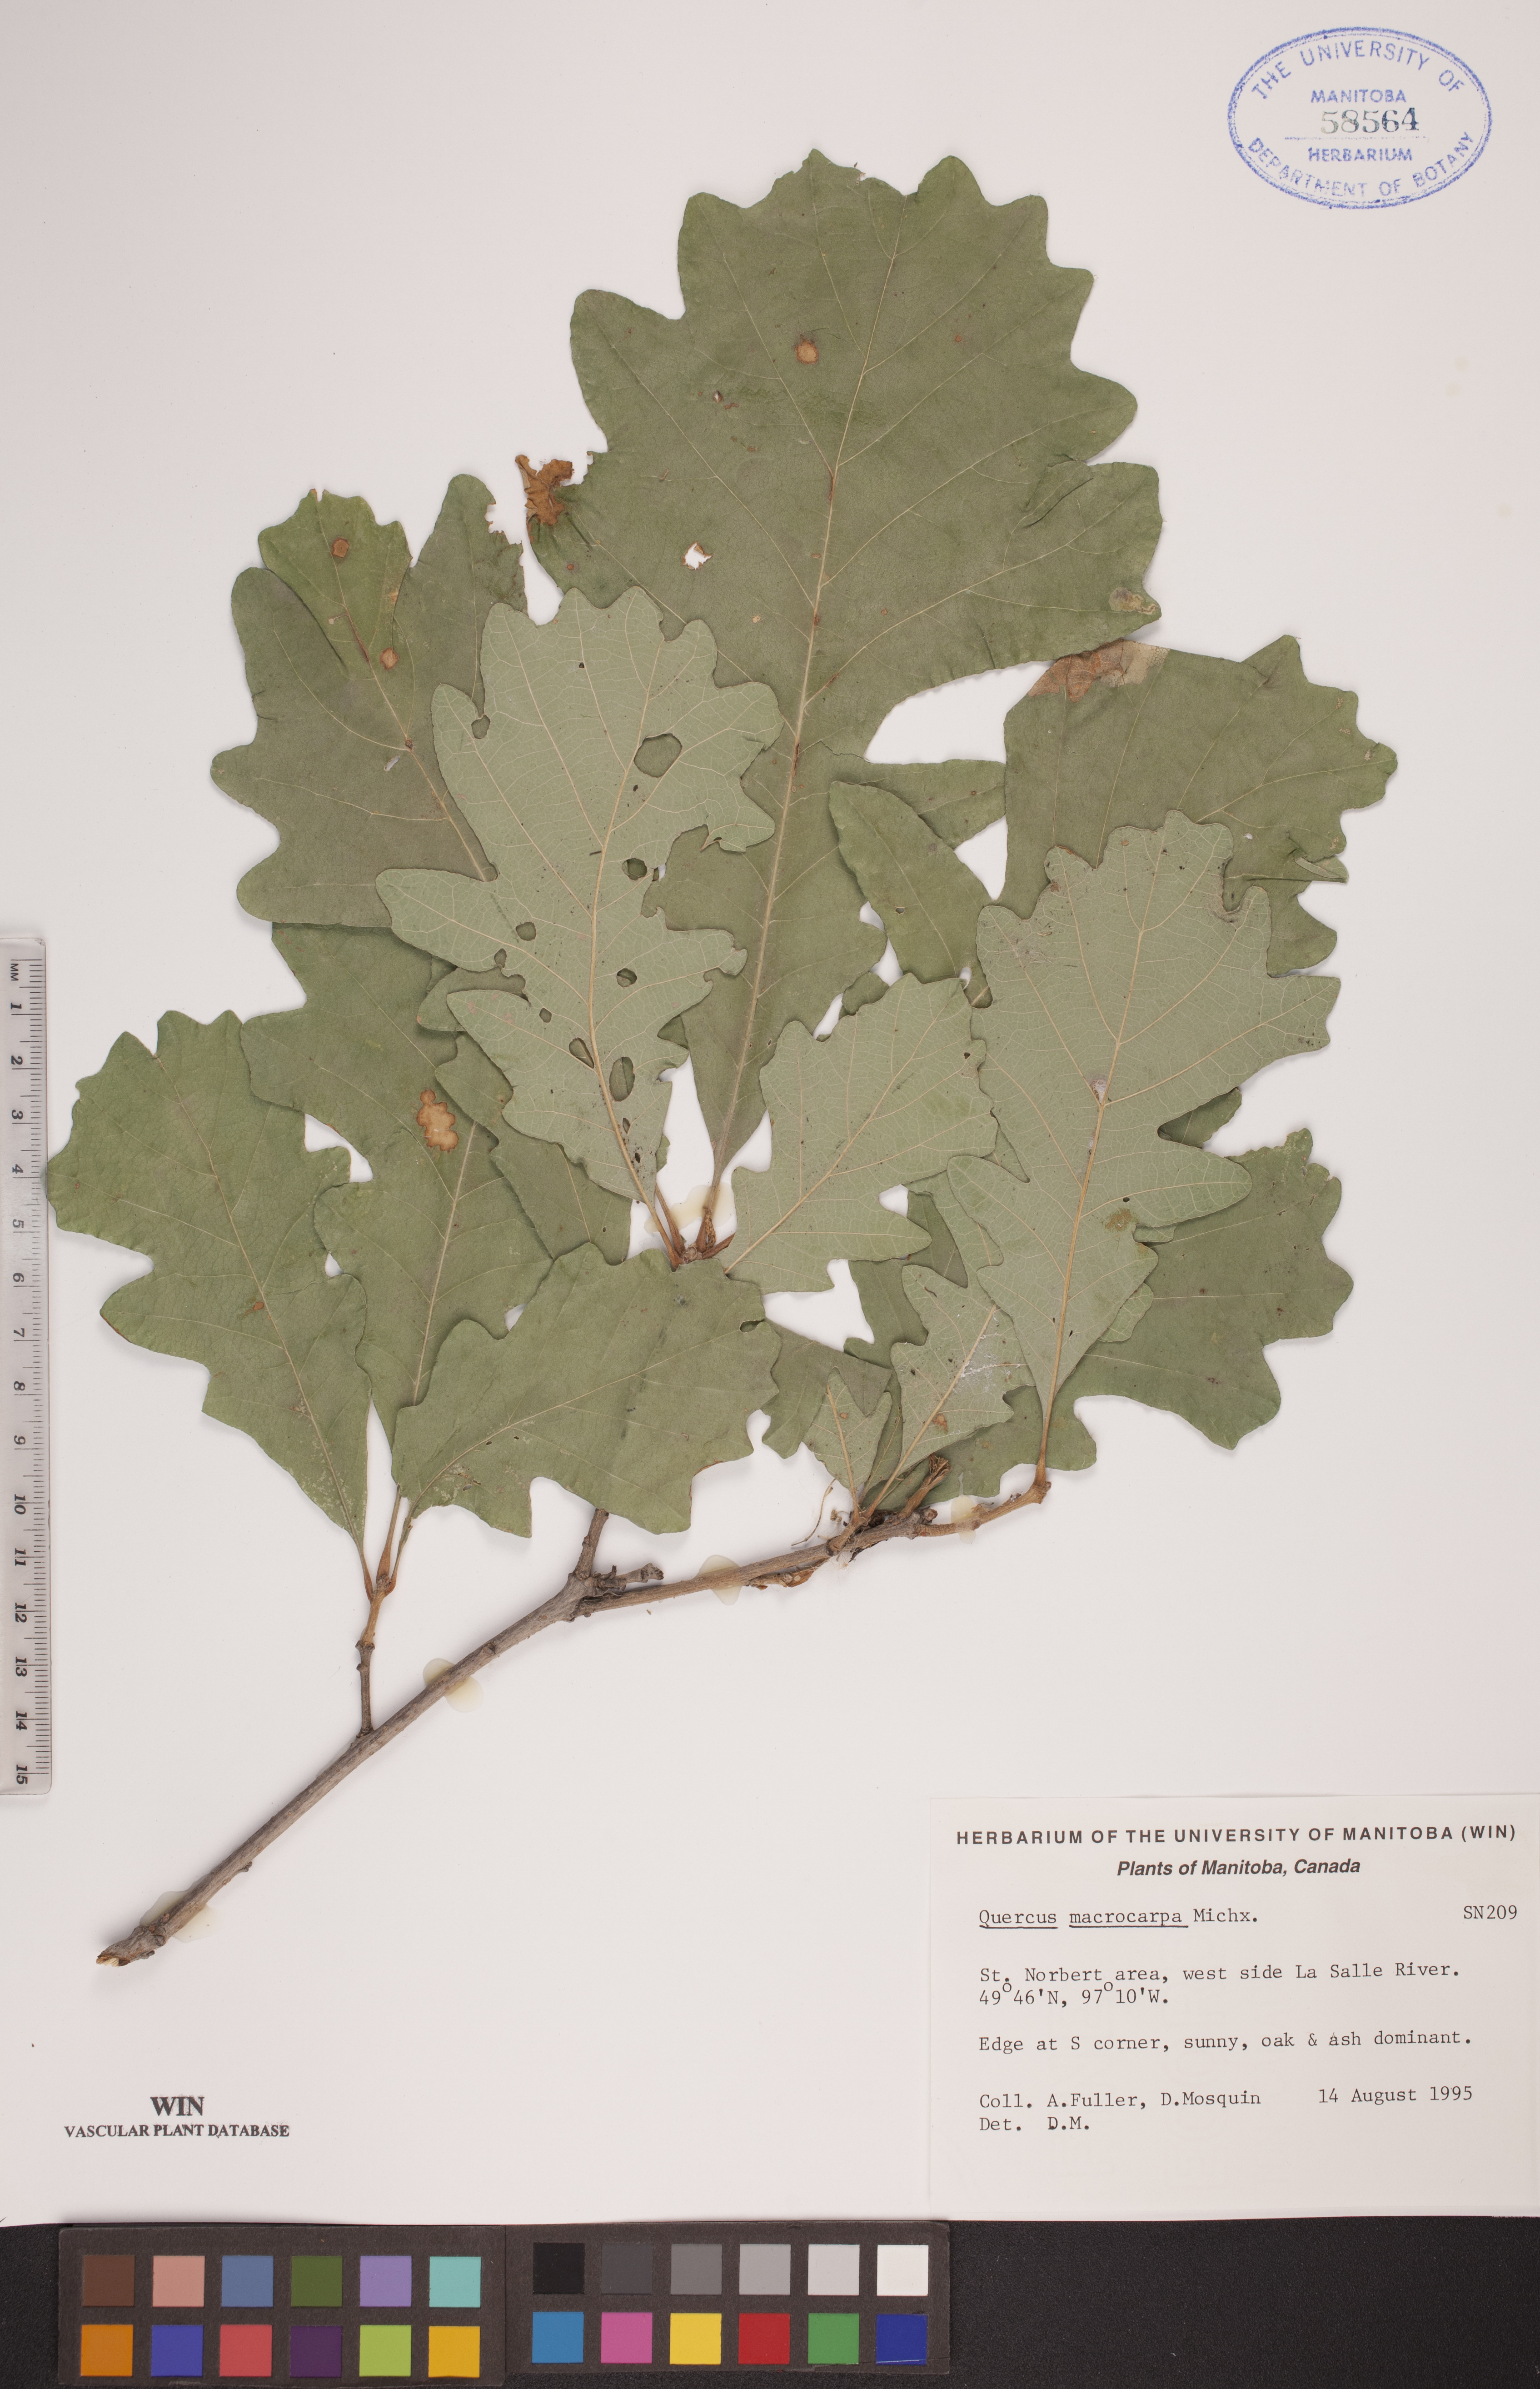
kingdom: Plantae
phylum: Tracheophyta
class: Magnoliopsida
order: Fagales
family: Fagaceae
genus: Quercus
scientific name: Quercus macrocarpa
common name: Bur oak
